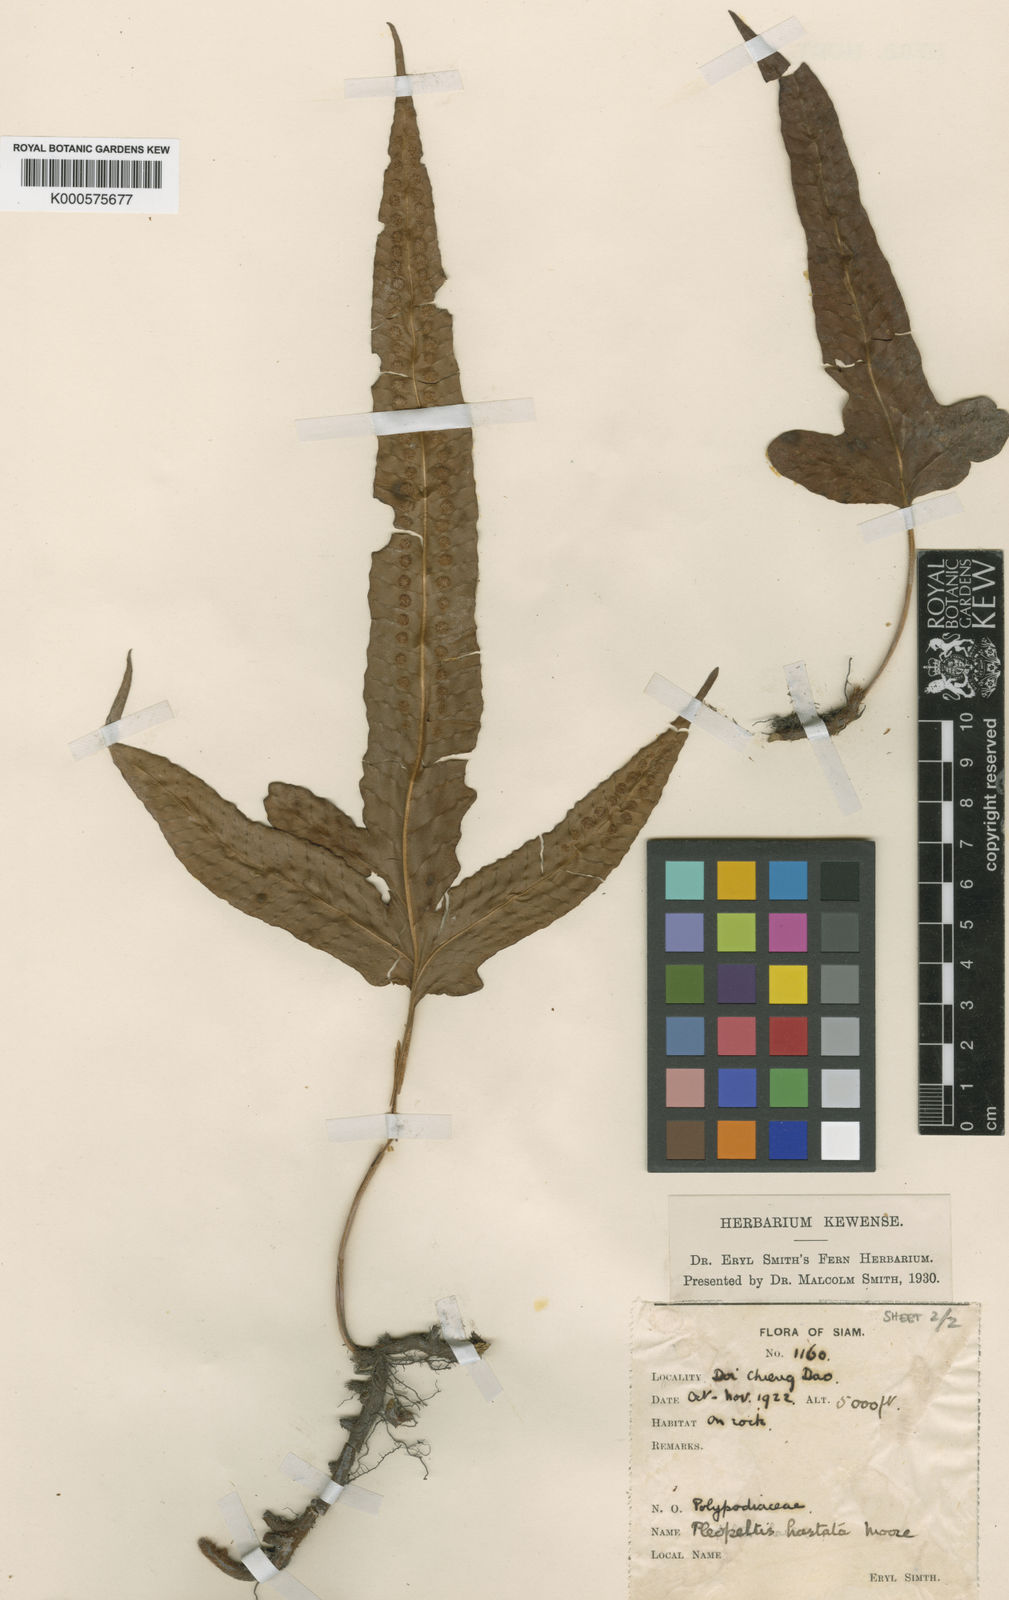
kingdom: Plantae
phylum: Tracheophyta
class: Polypodiopsida
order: Polypodiales
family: Polypodiaceae
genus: Selliguea
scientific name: Selliguea trisecta
